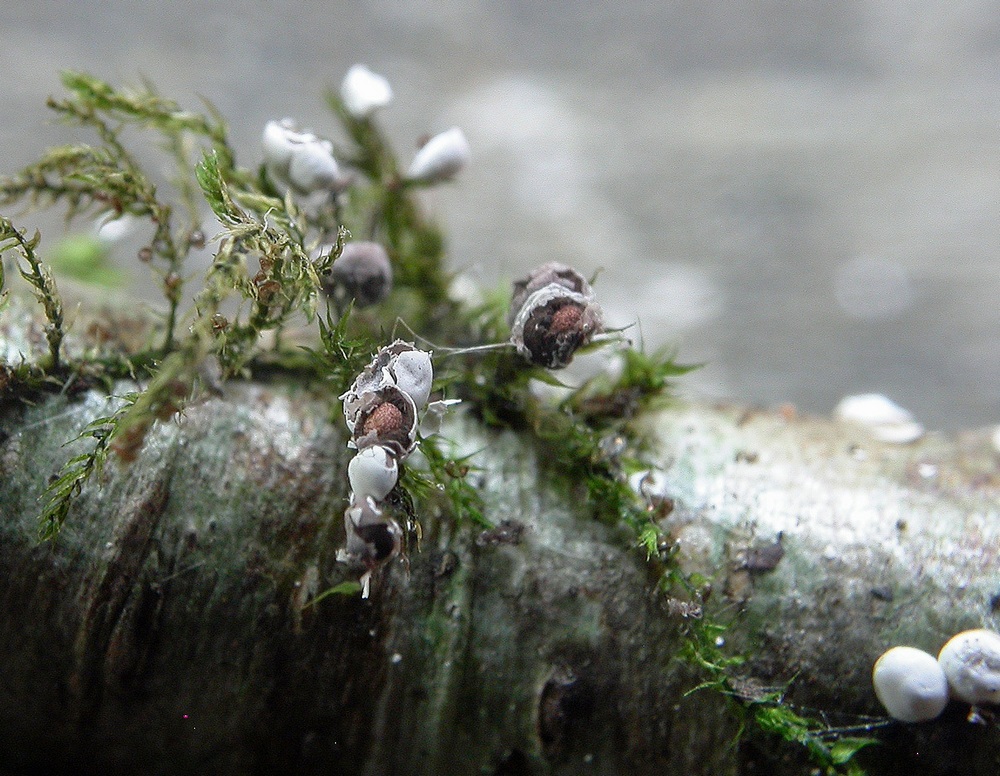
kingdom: Protozoa
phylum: Mycetozoa
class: Myxomycetes
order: Physarales
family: Didymiaceae
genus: Diderma
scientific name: Diderma radiatum
